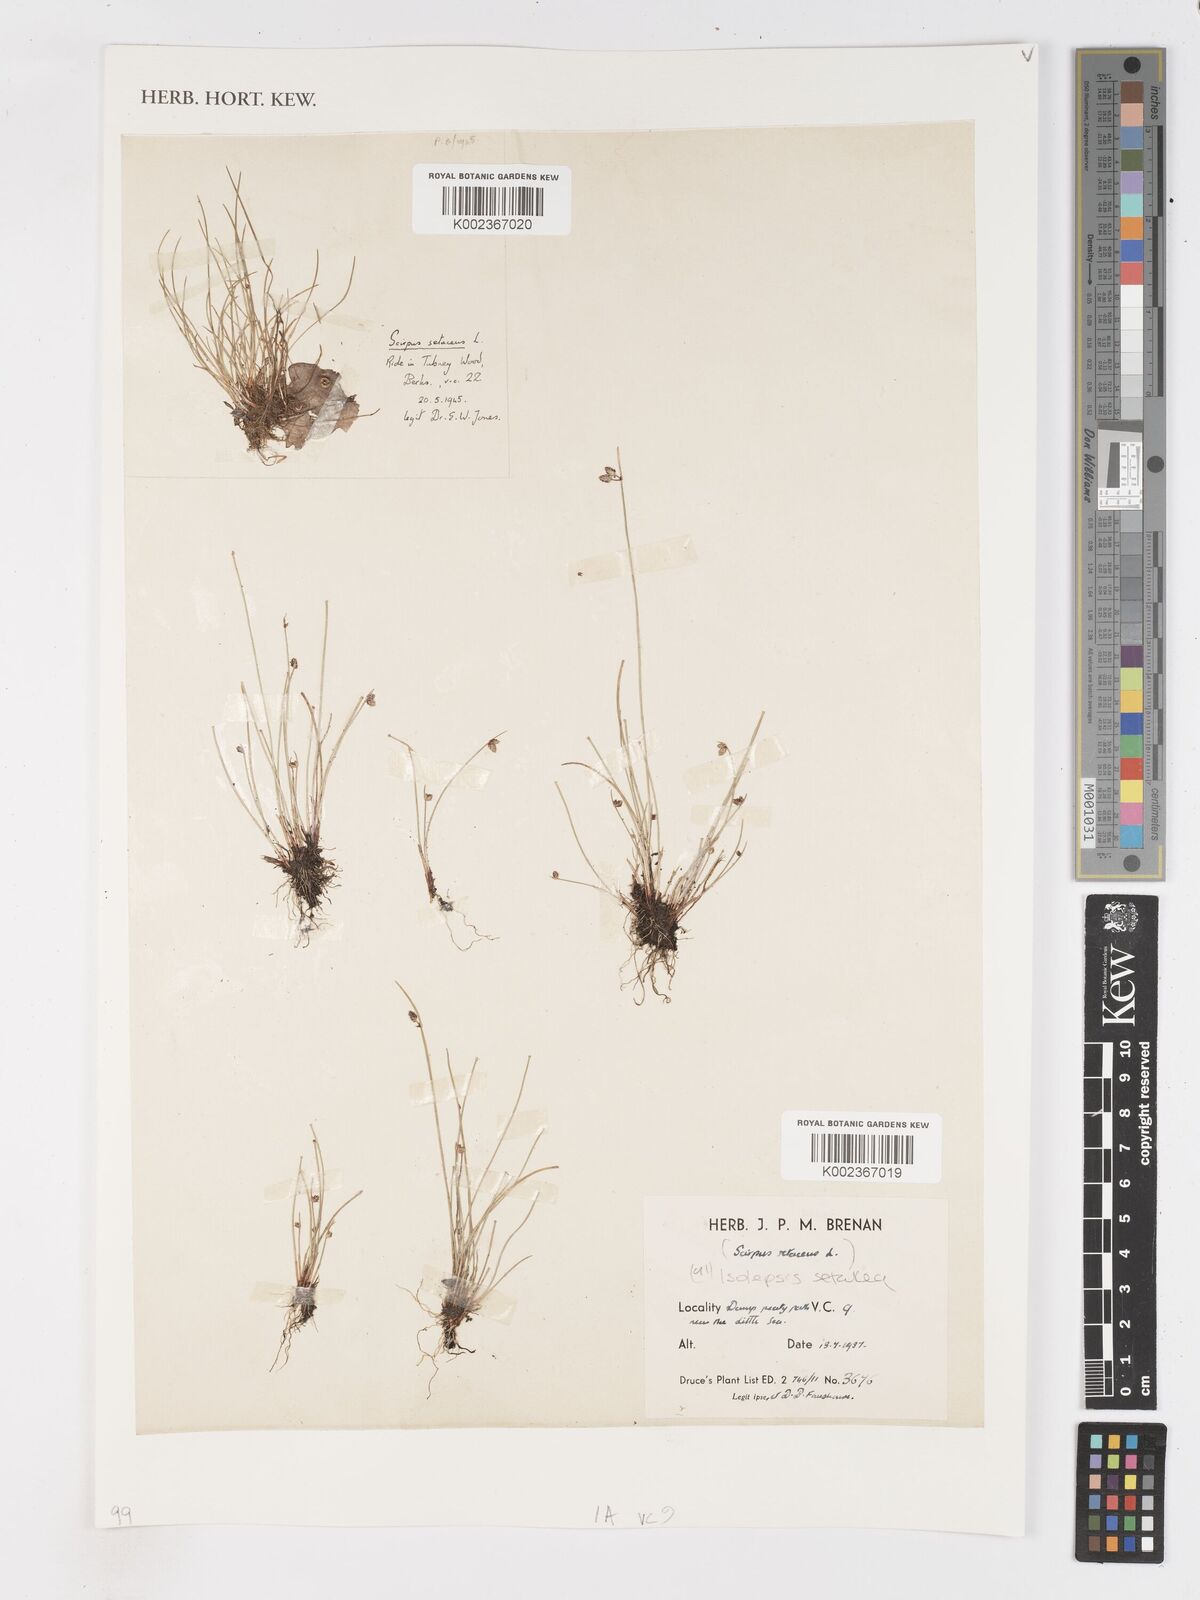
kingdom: Plantae
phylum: Tracheophyta
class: Liliopsida
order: Poales
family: Cyperaceae
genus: Isolepis
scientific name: Isolepis setacea
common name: Bristle club-rush
